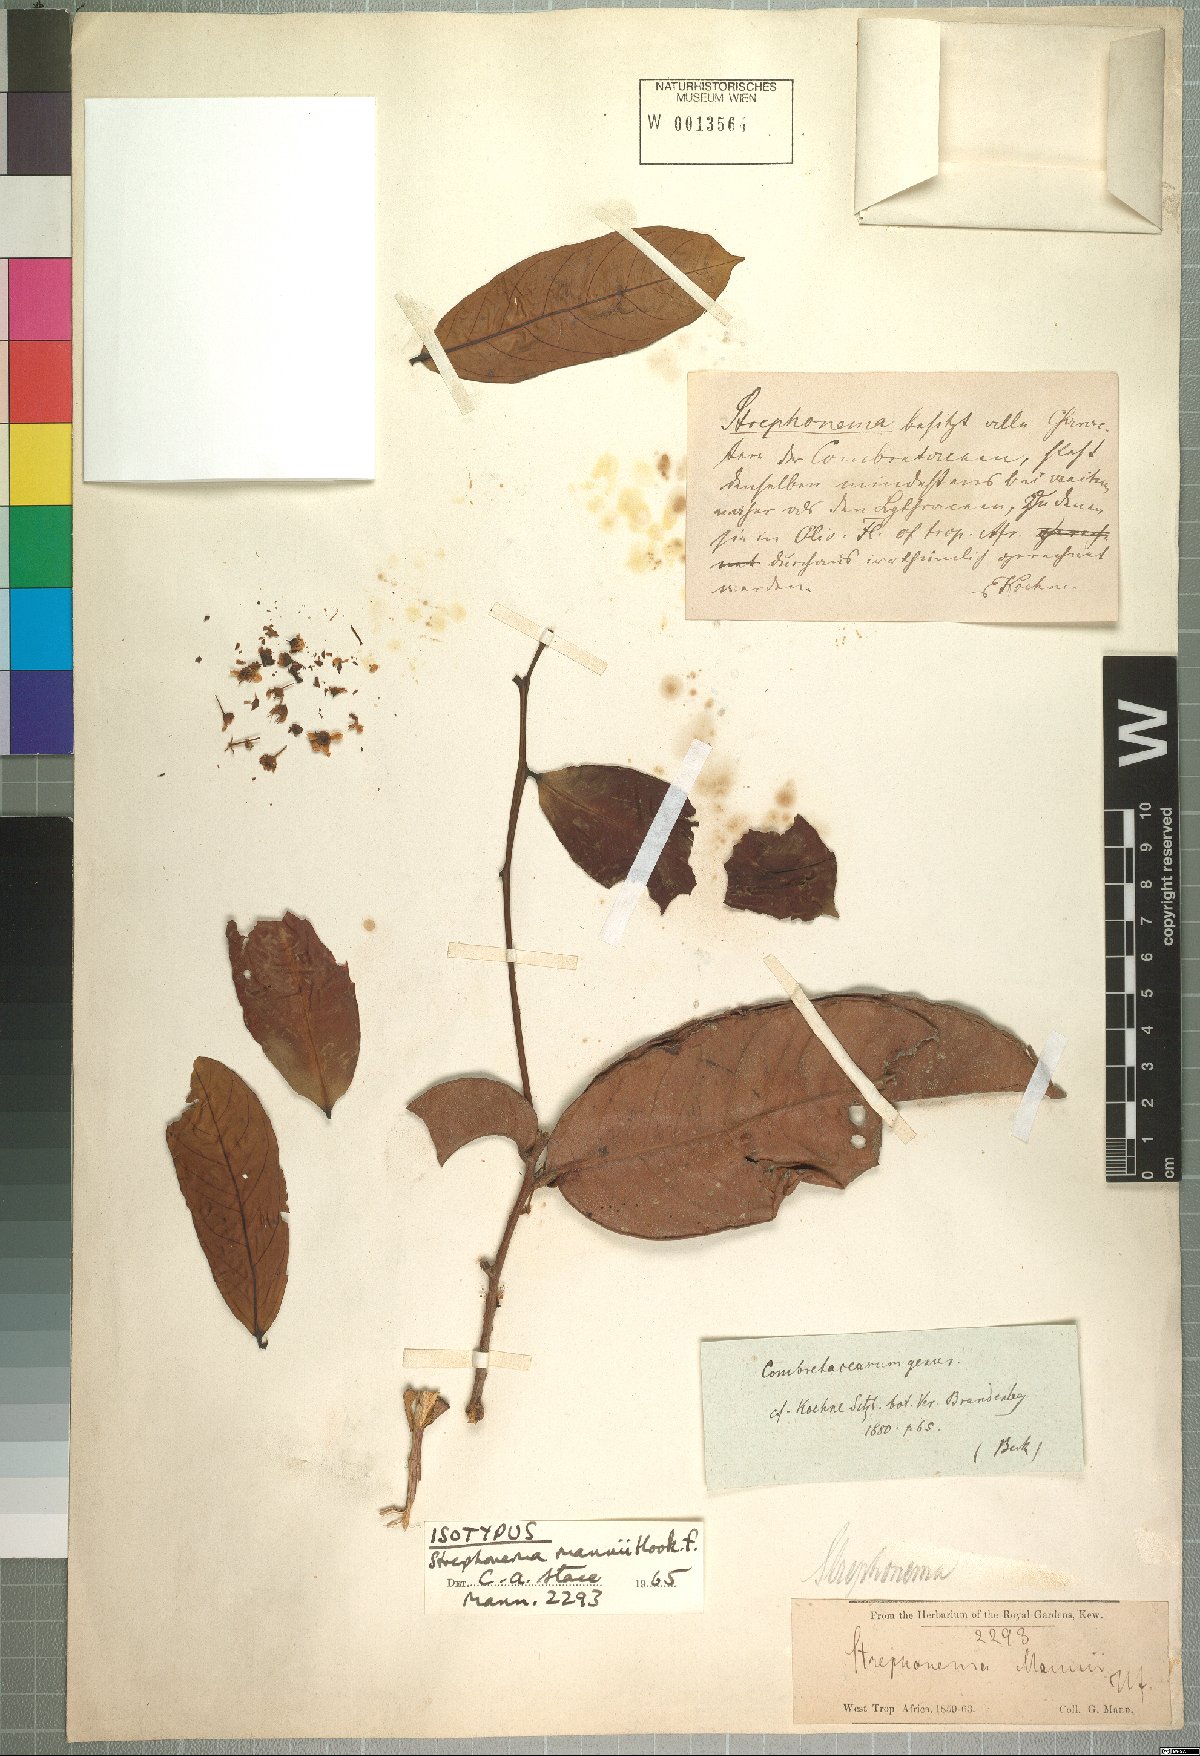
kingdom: Plantae
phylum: Tracheophyta
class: Magnoliopsida
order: Myrtales
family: Combretaceae
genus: Strephonema
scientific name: Strephonema mannii
